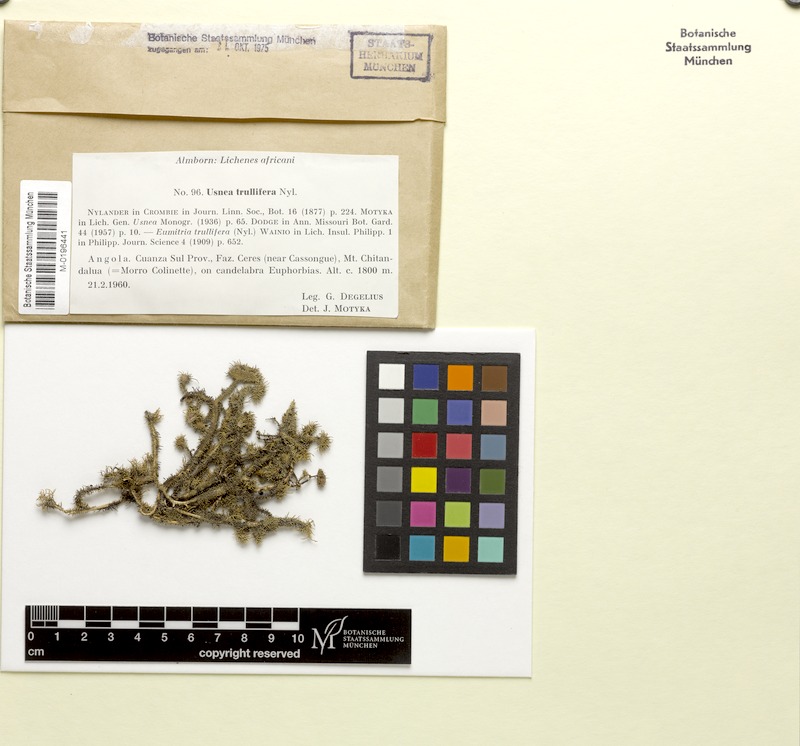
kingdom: Fungi
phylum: Ascomycota
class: Lecanoromycetes
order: Lecanorales
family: Parmeliaceae
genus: Usnea
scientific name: Usnea trullifera
